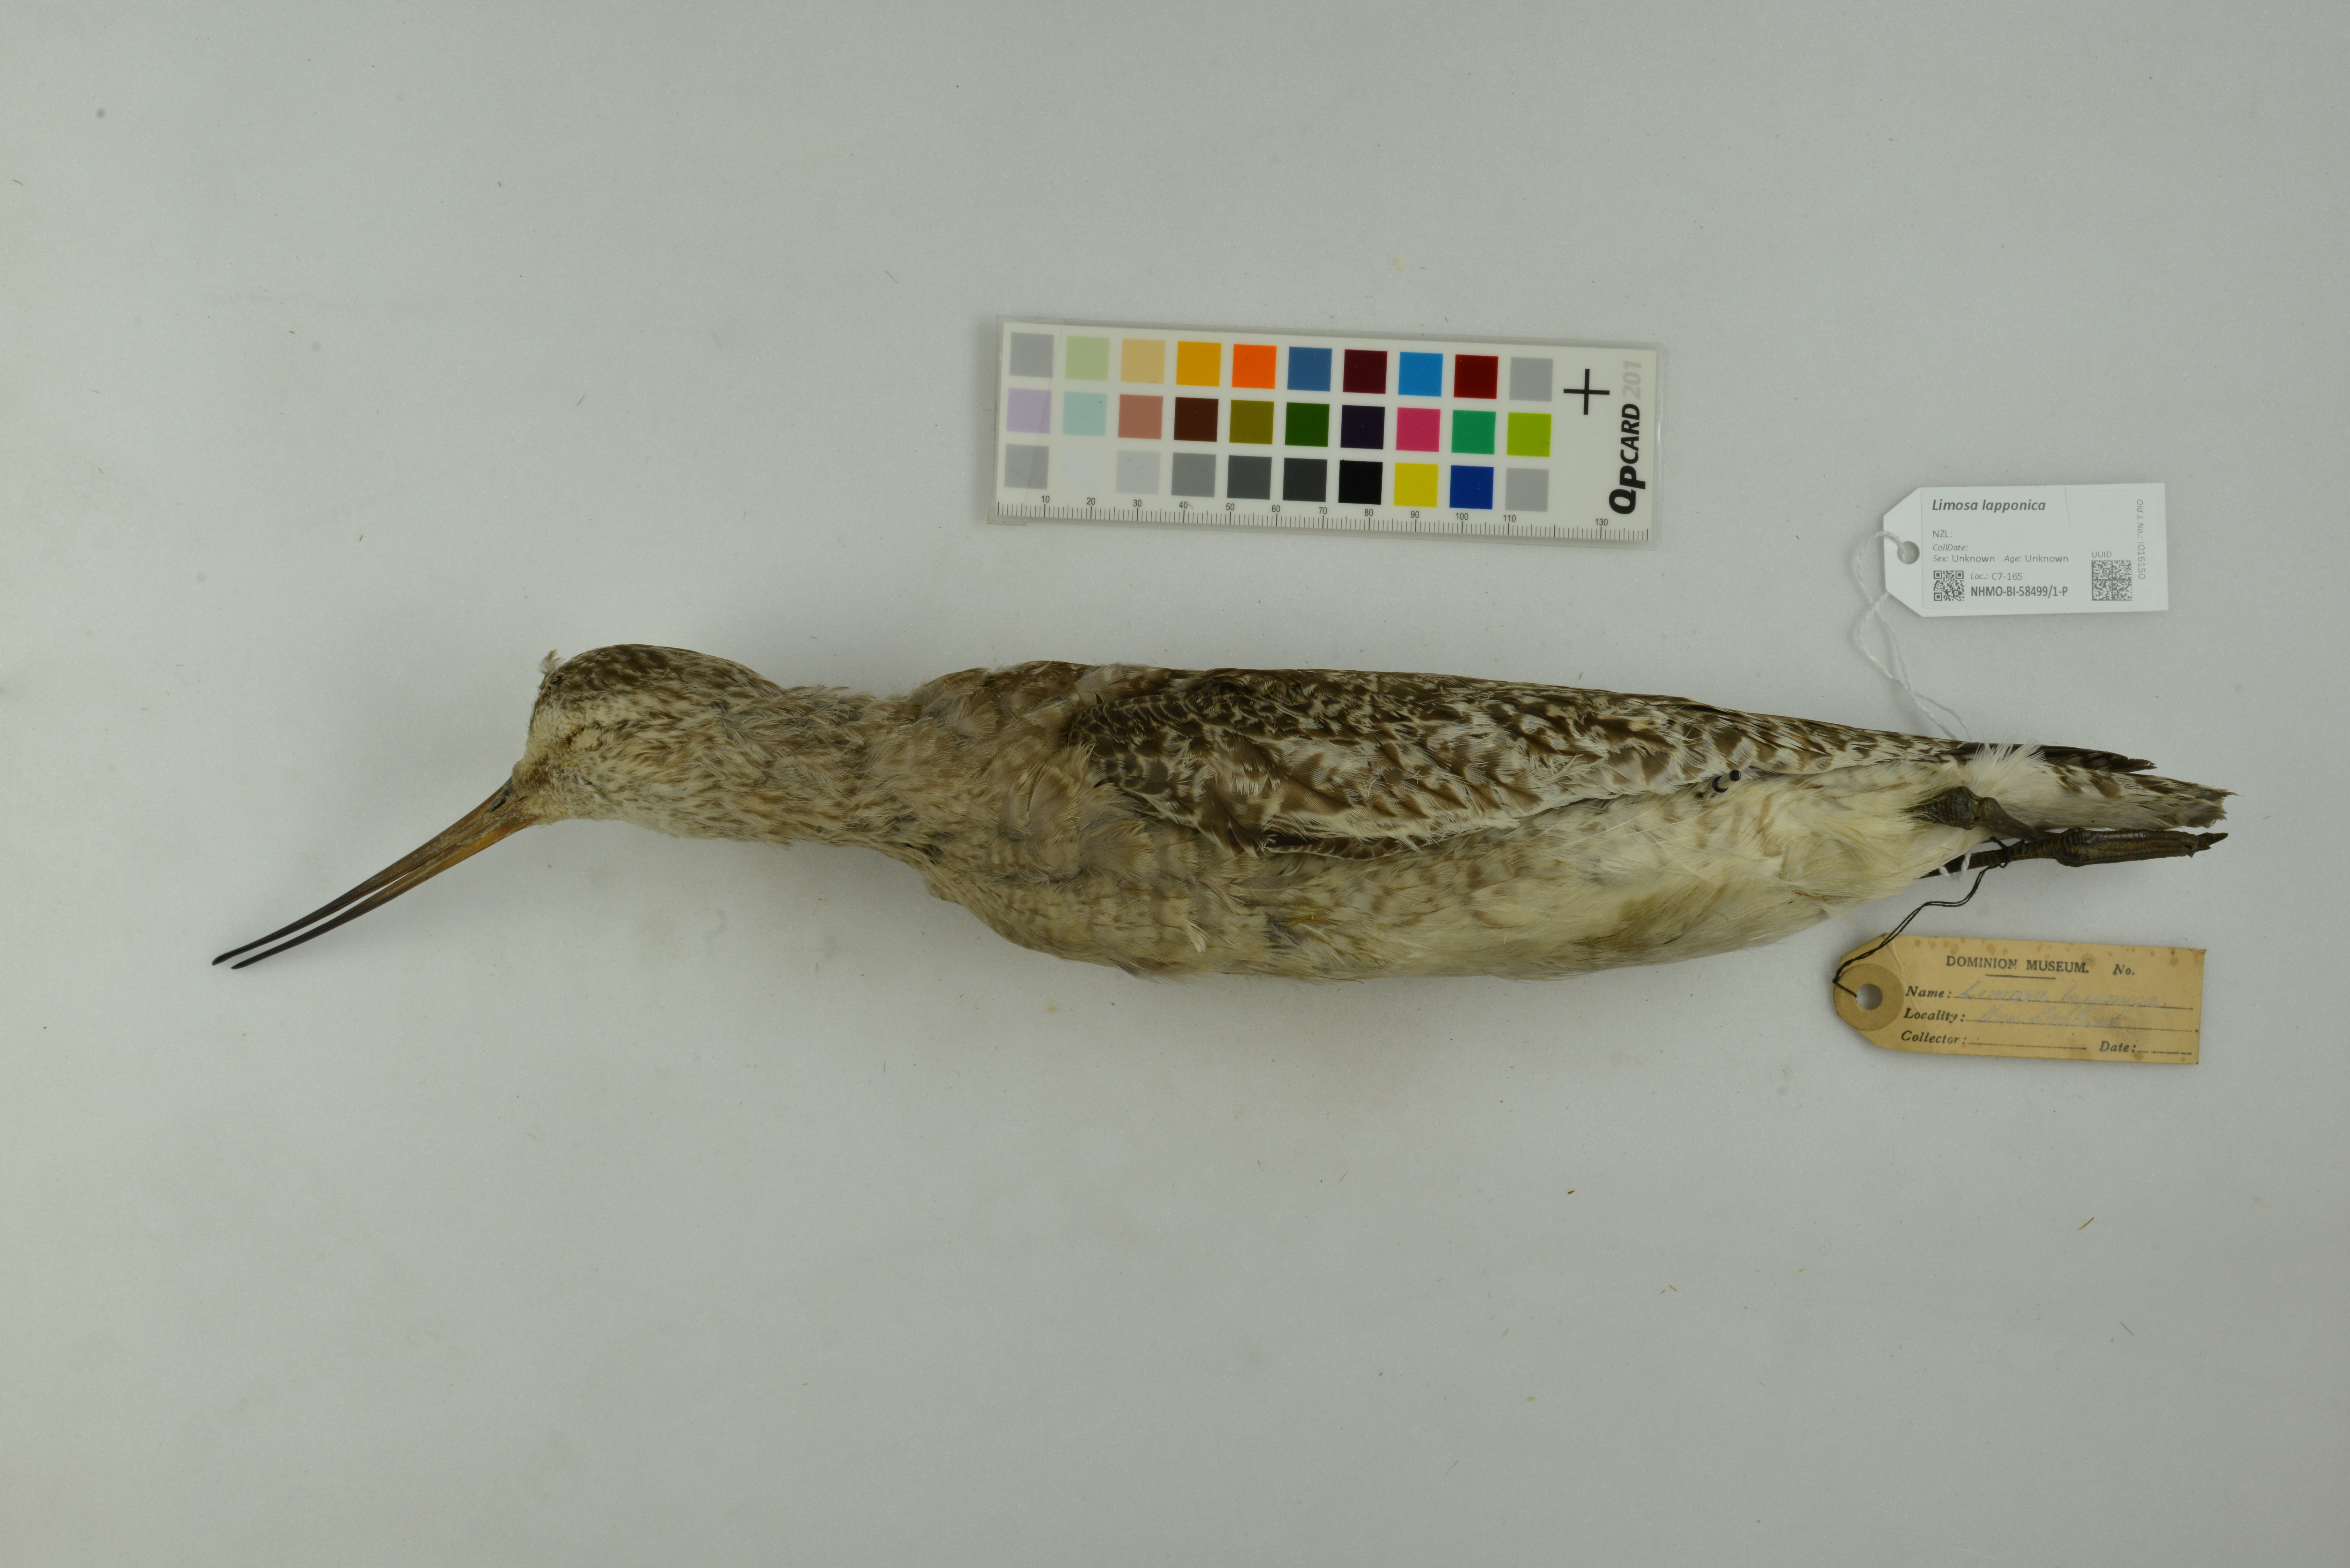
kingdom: Animalia
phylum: Chordata
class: Aves
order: Charadriiformes
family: Scolopacidae
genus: Limosa
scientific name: Limosa lapponica
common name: Bar-tailed godwit
